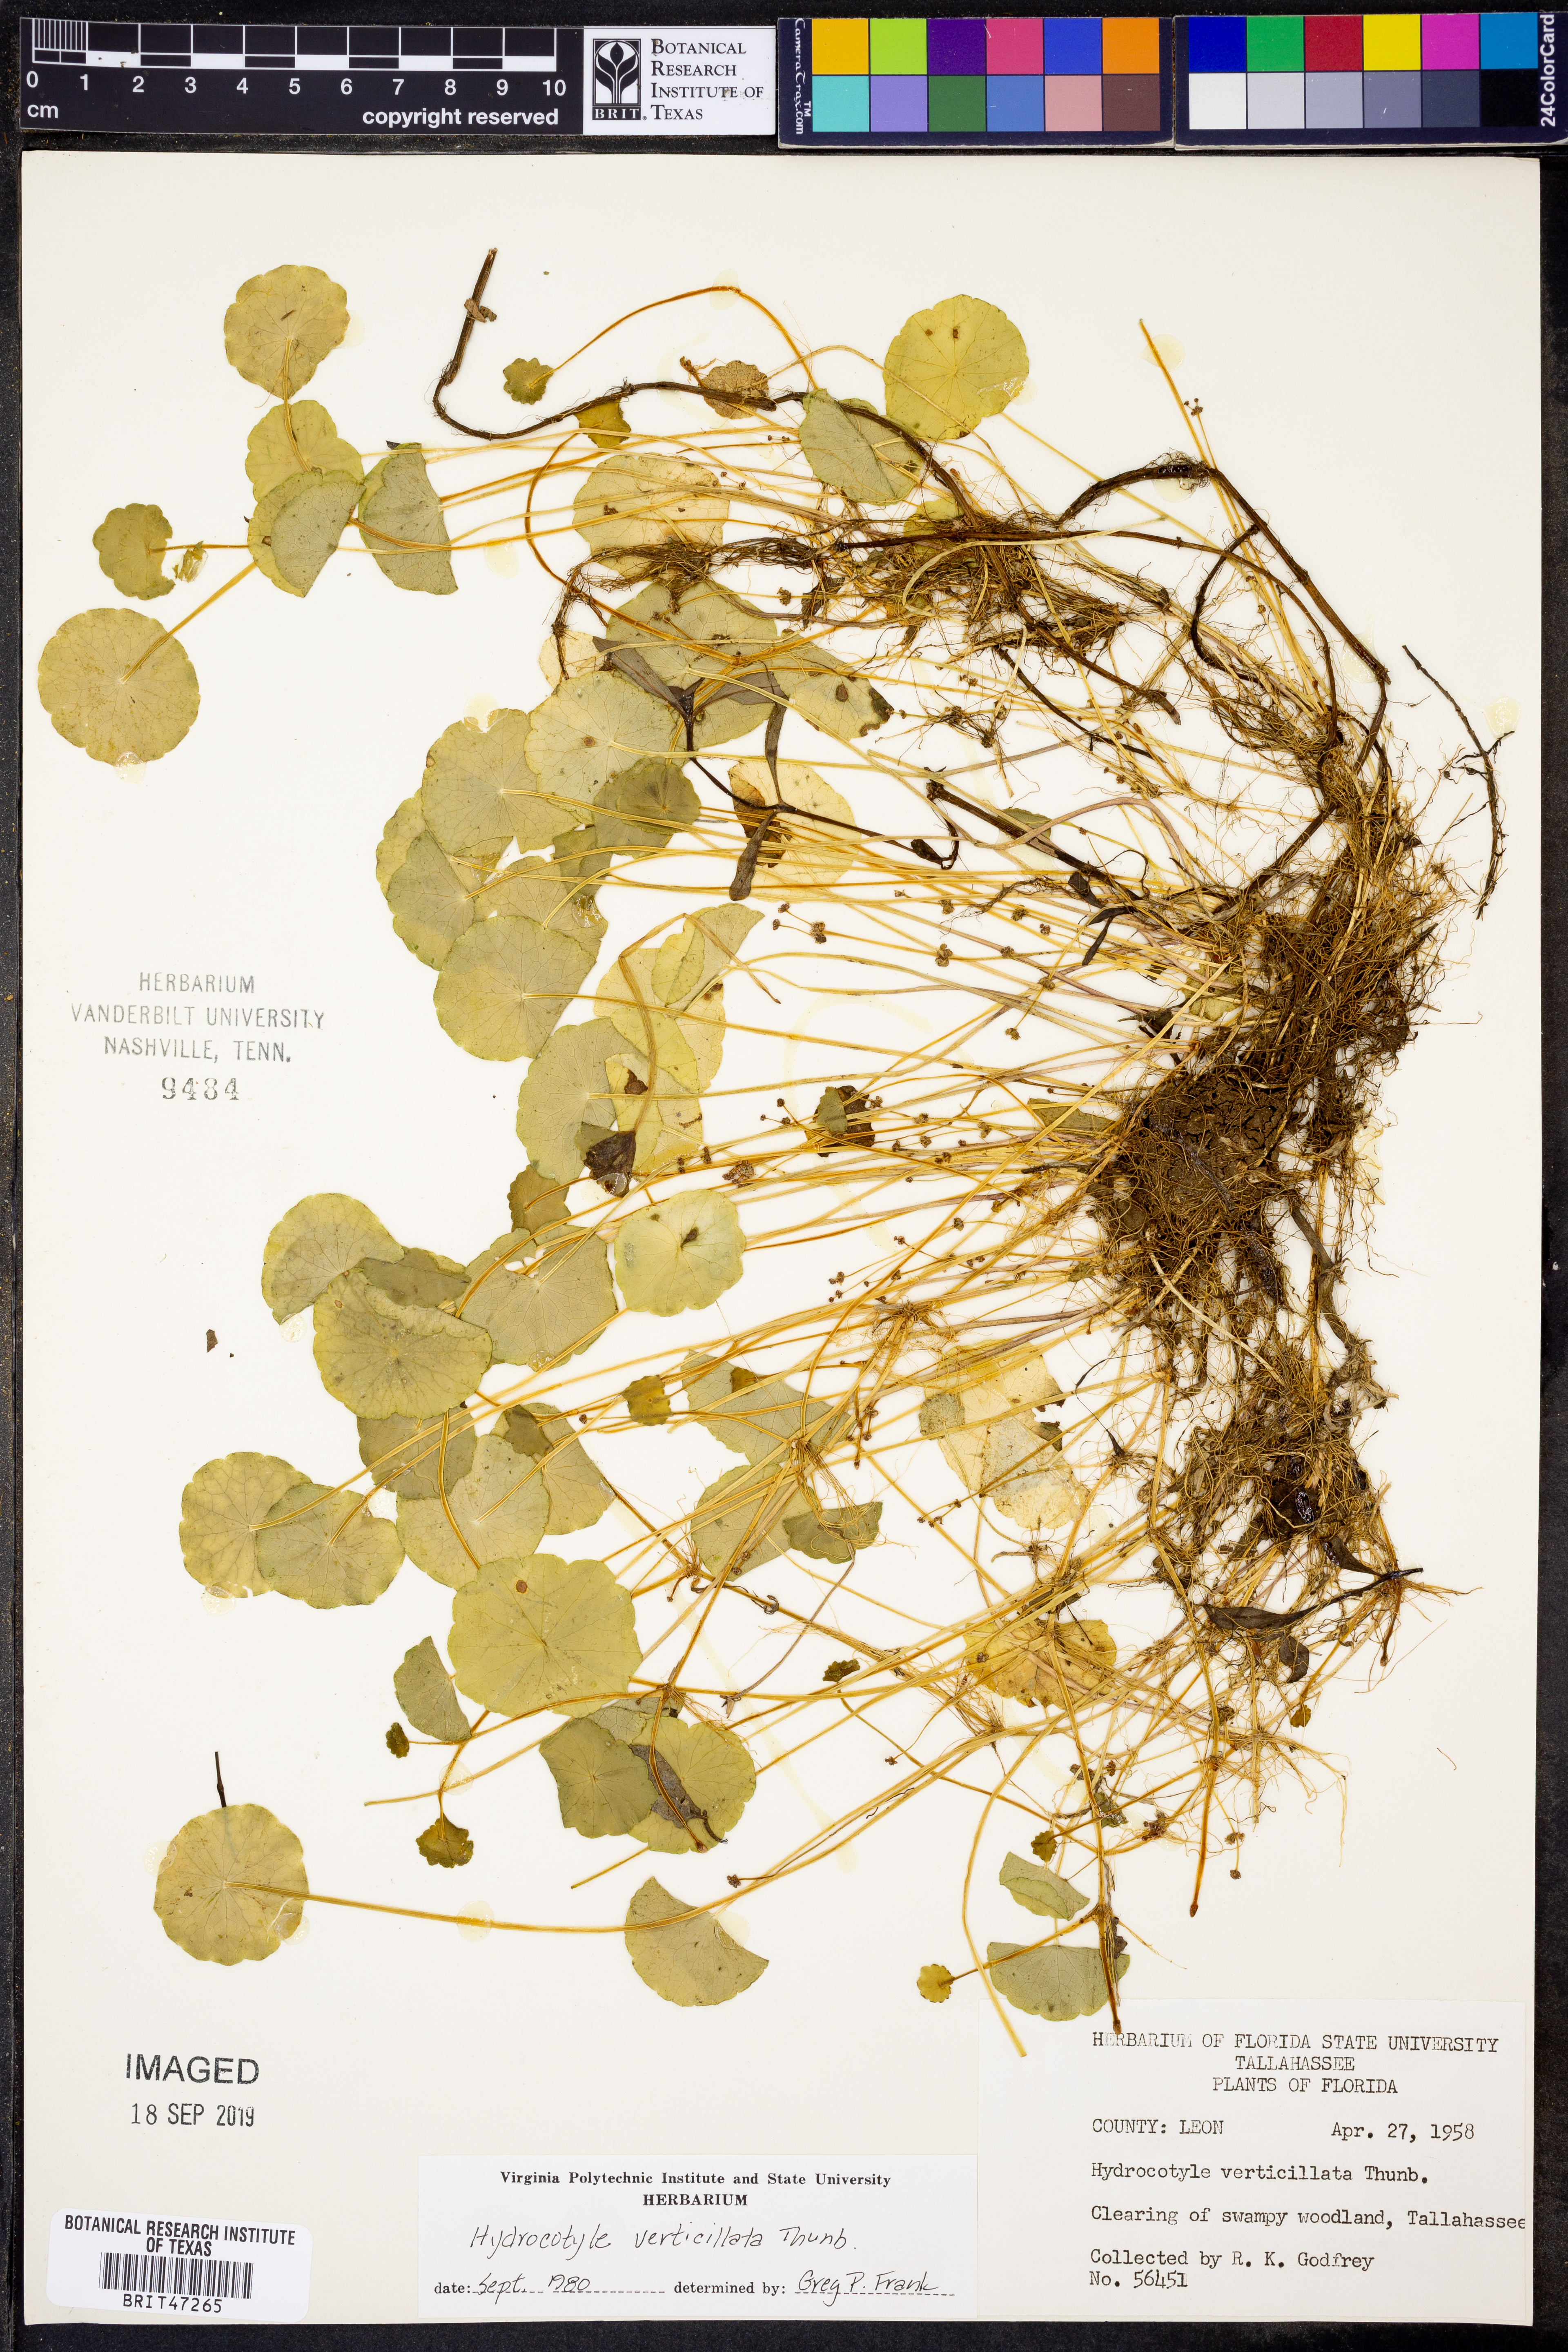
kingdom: Plantae
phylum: Tracheophyta
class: Magnoliopsida
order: Apiales
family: Araliaceae
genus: Hydrocotyle
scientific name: Hydrocotyle verticillata
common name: Whorled marshpennywort
